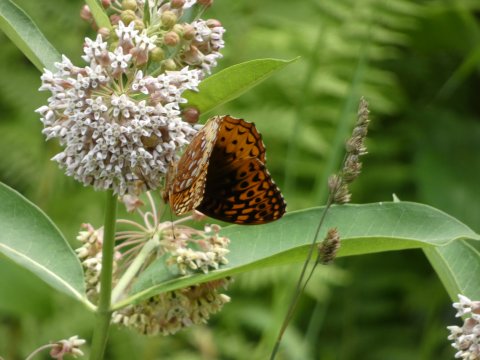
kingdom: Animalia
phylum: Arthropoda
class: Insecta
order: Lepidoptera
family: Nymphalidae
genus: Speyeria
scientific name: Speyeria cybele
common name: Great Spangled Fritillary
